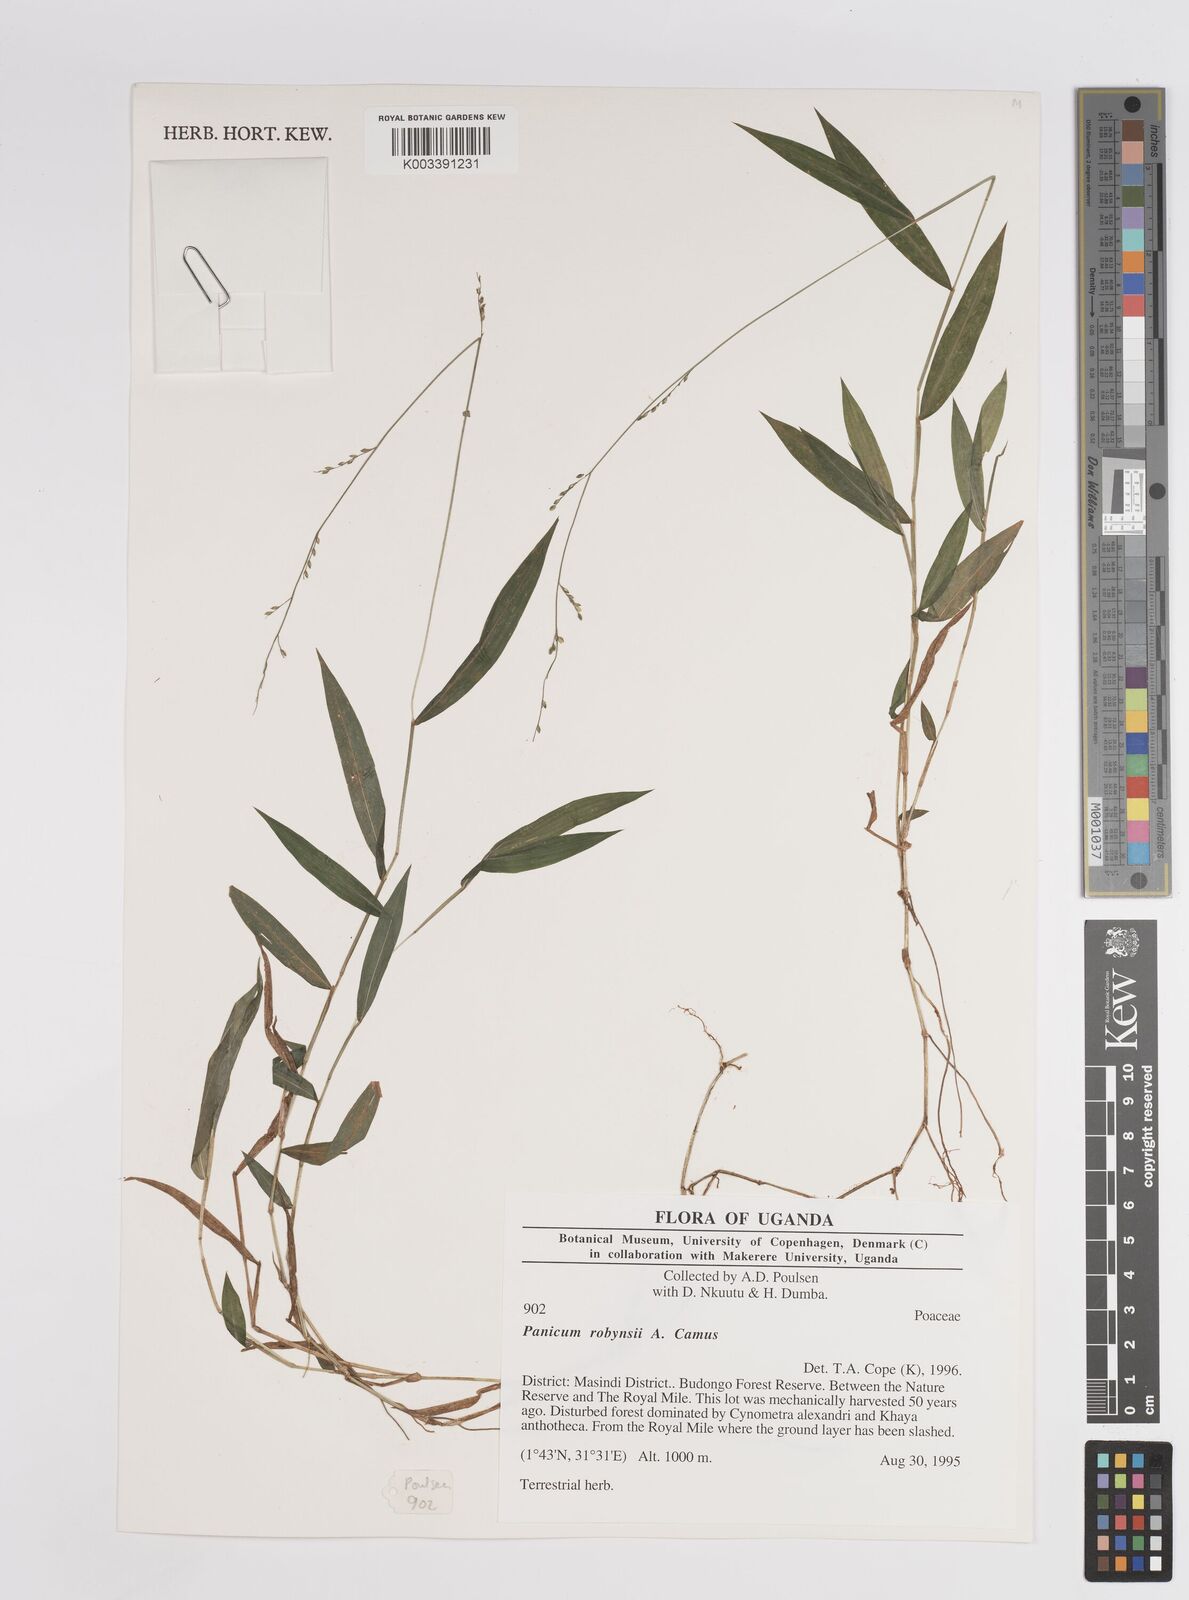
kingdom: Plantae
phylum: Tracheophyta
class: Liliopsida
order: Poales
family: Poaceae
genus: Panicum
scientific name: Panicum robynsii
